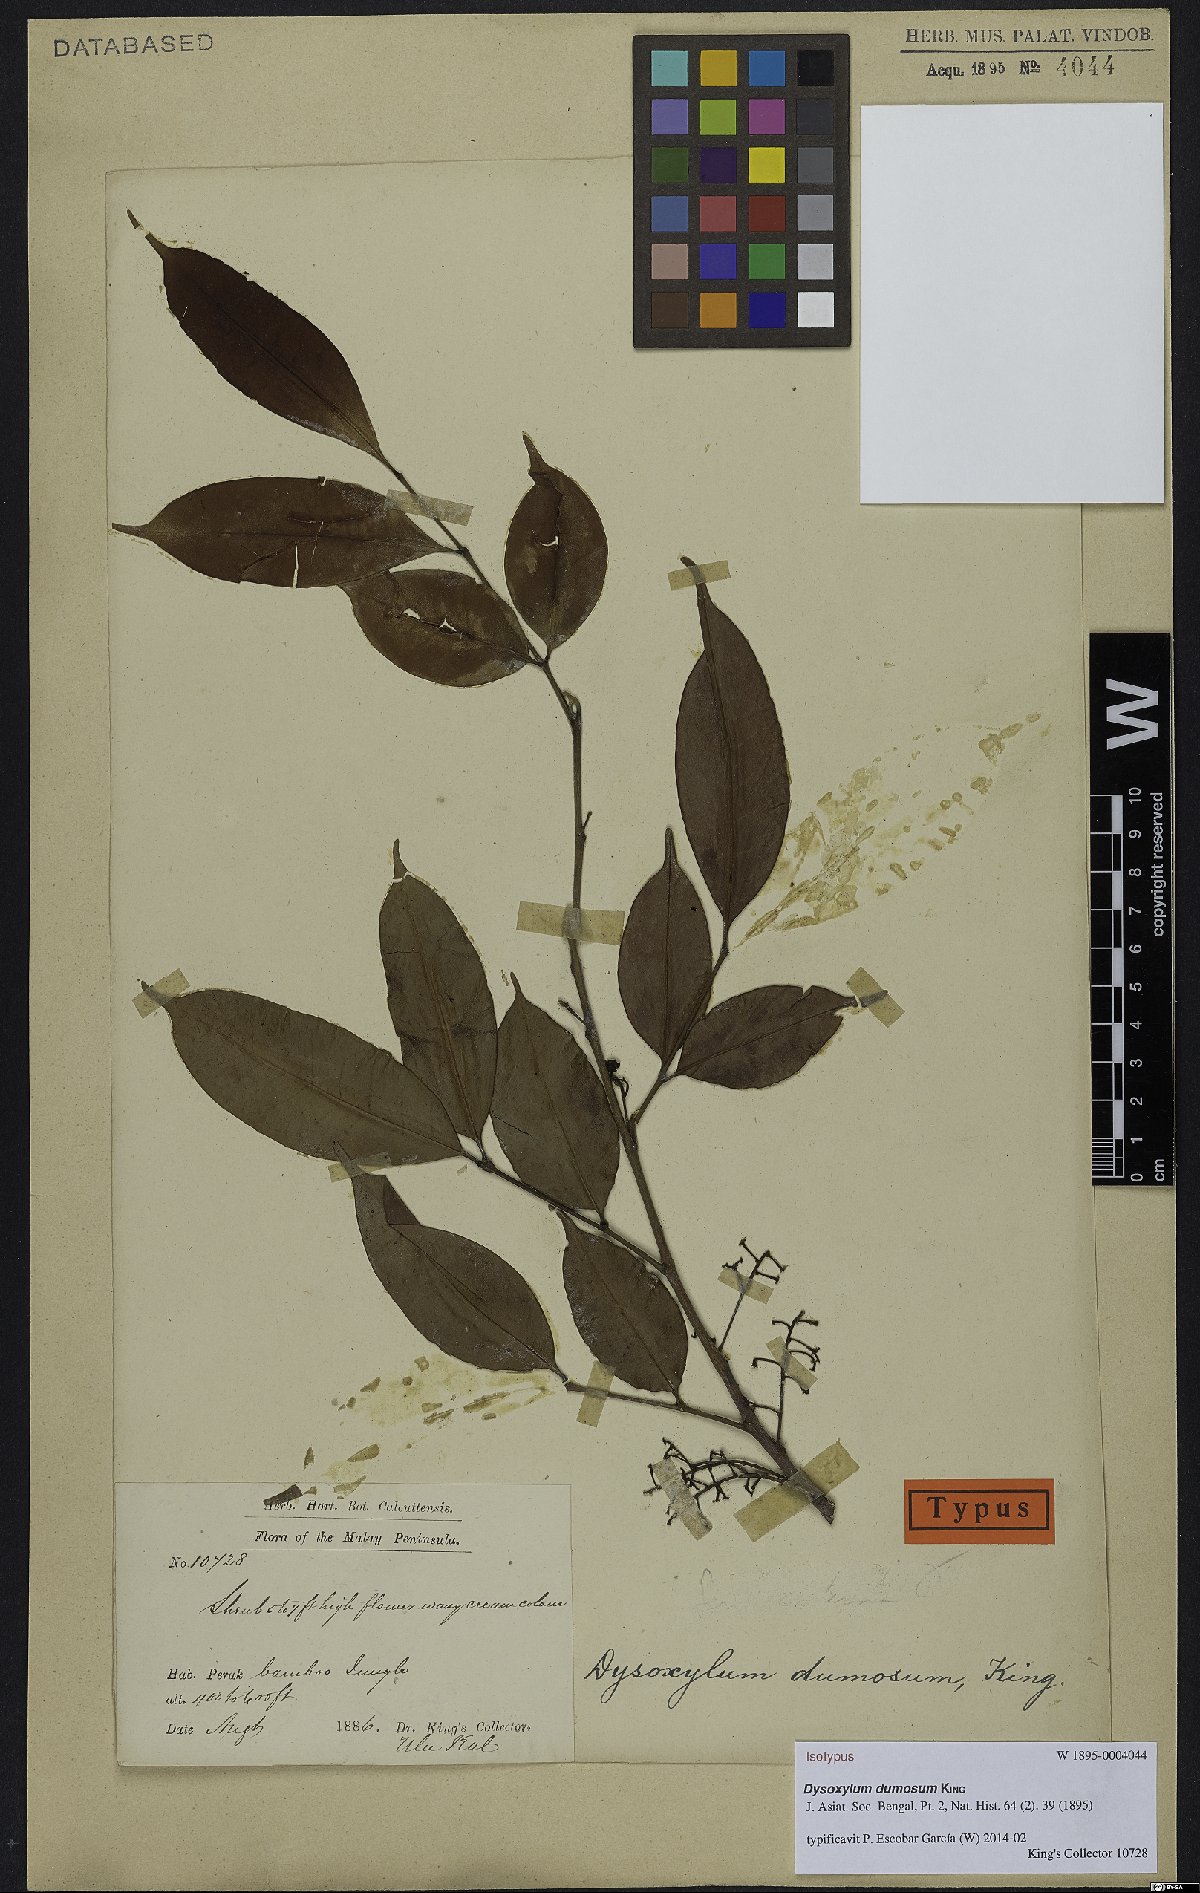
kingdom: Plantae
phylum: Tracheophyta
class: Magnoliopsida
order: Sapindales
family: Meliaceae
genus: Pseudocarapa
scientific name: Pseudocarapa dumosa
